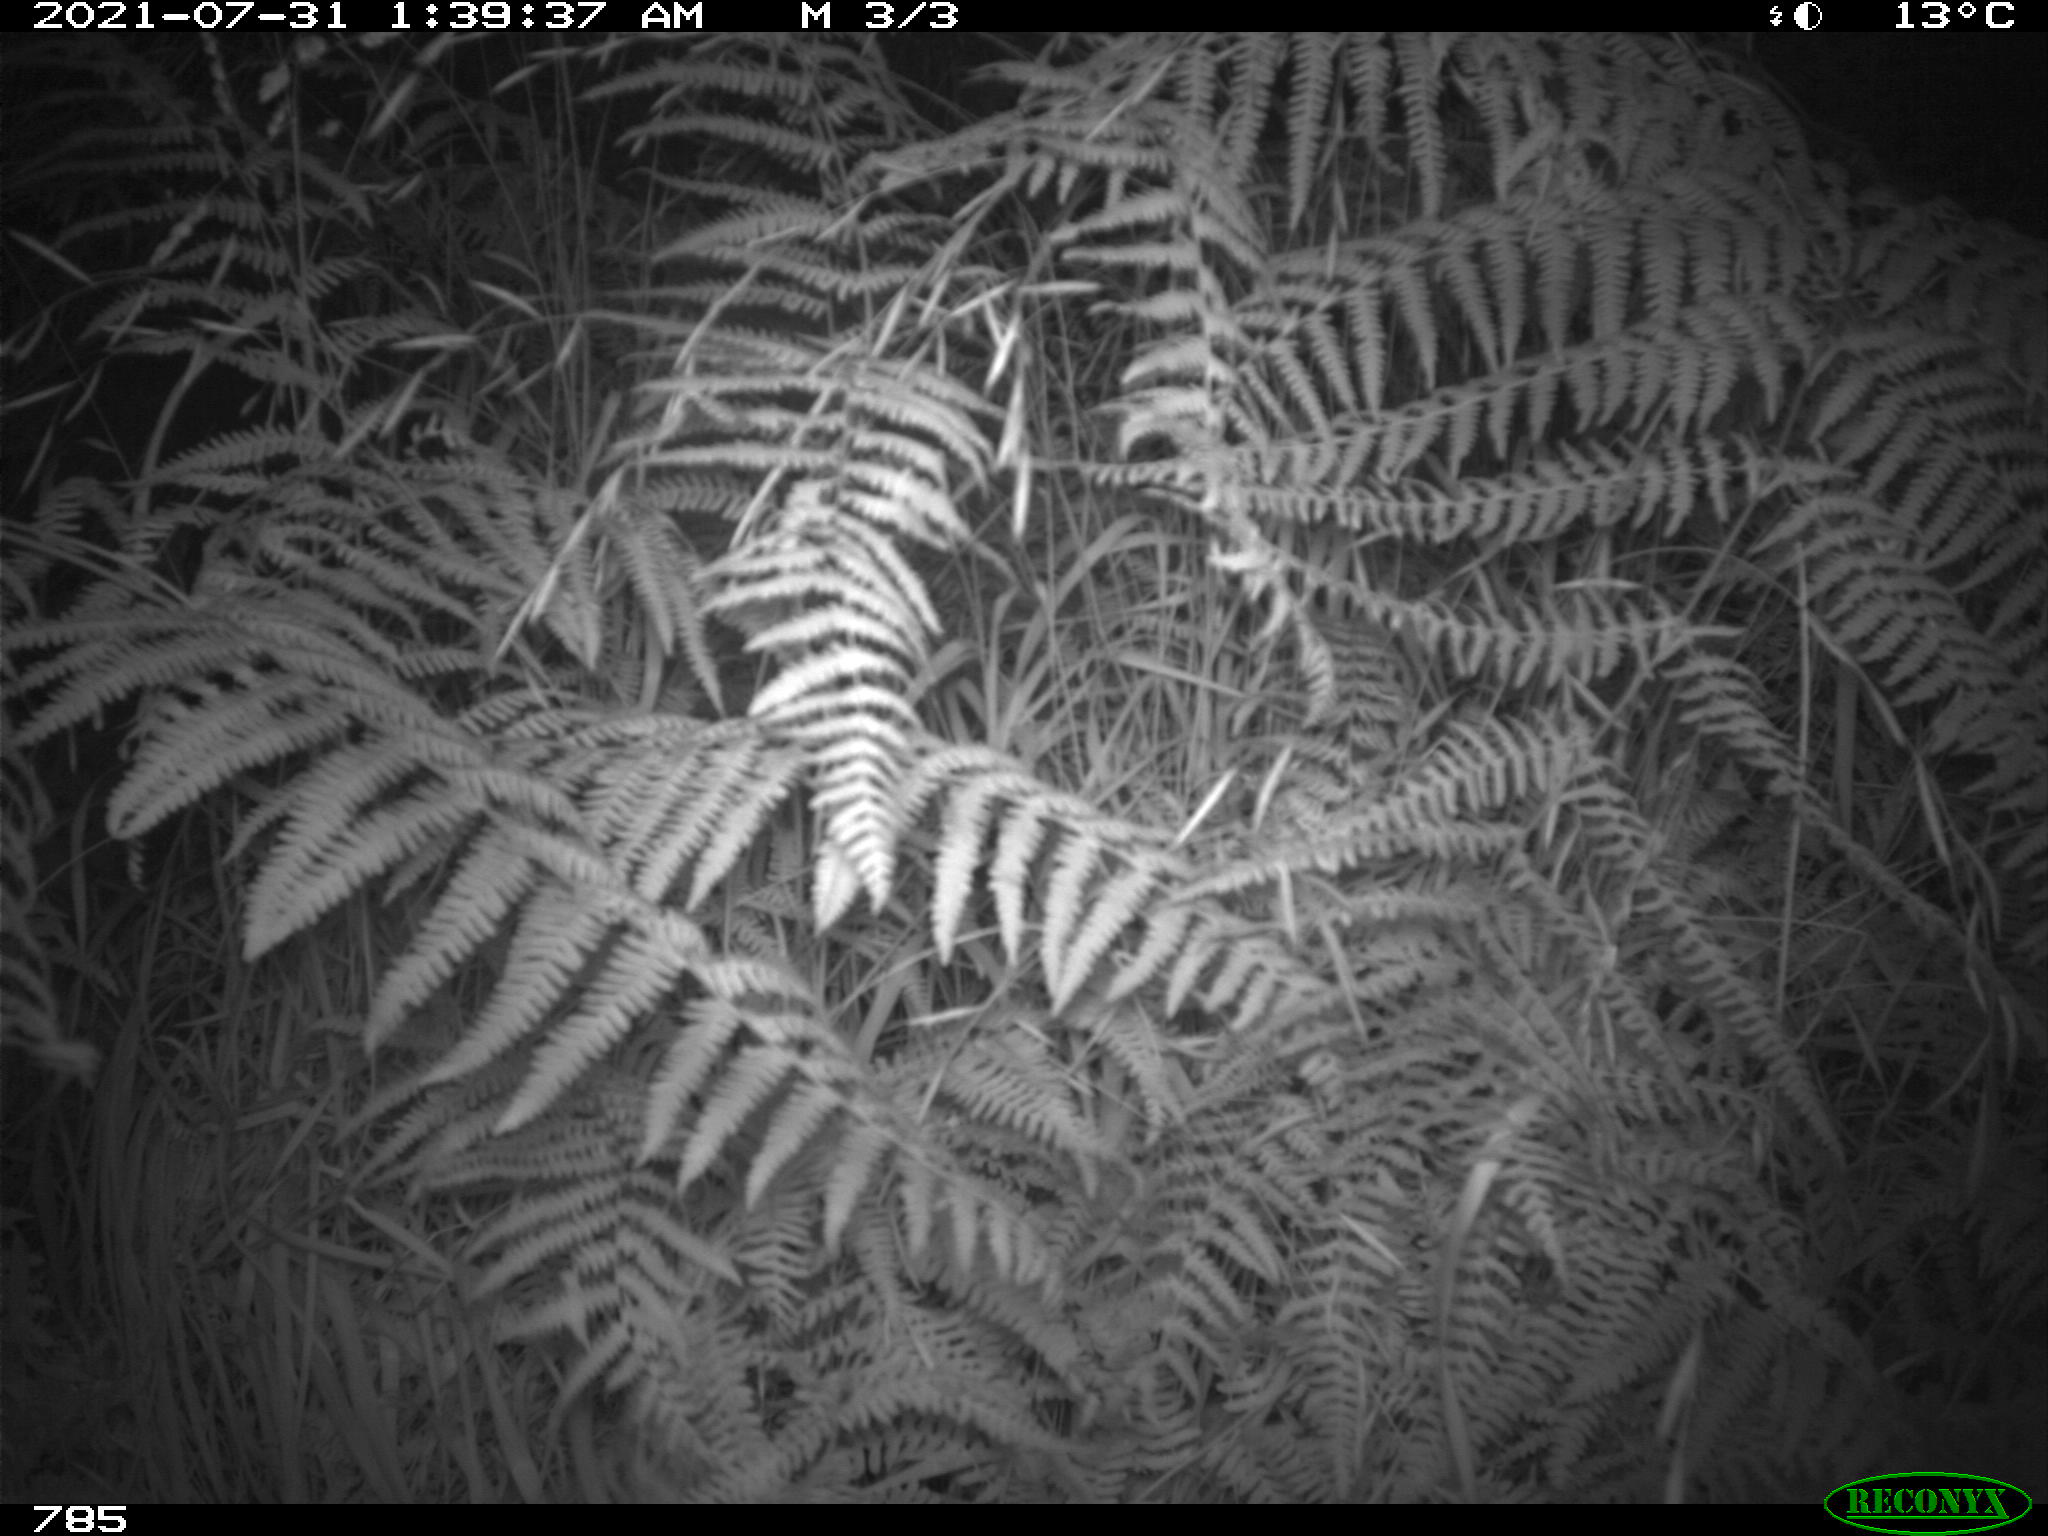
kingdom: Animalia
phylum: Chordata
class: Mammalia
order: Artiodactyla
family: Suidae
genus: Sus
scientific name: Sus scrofa
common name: Wild boar
